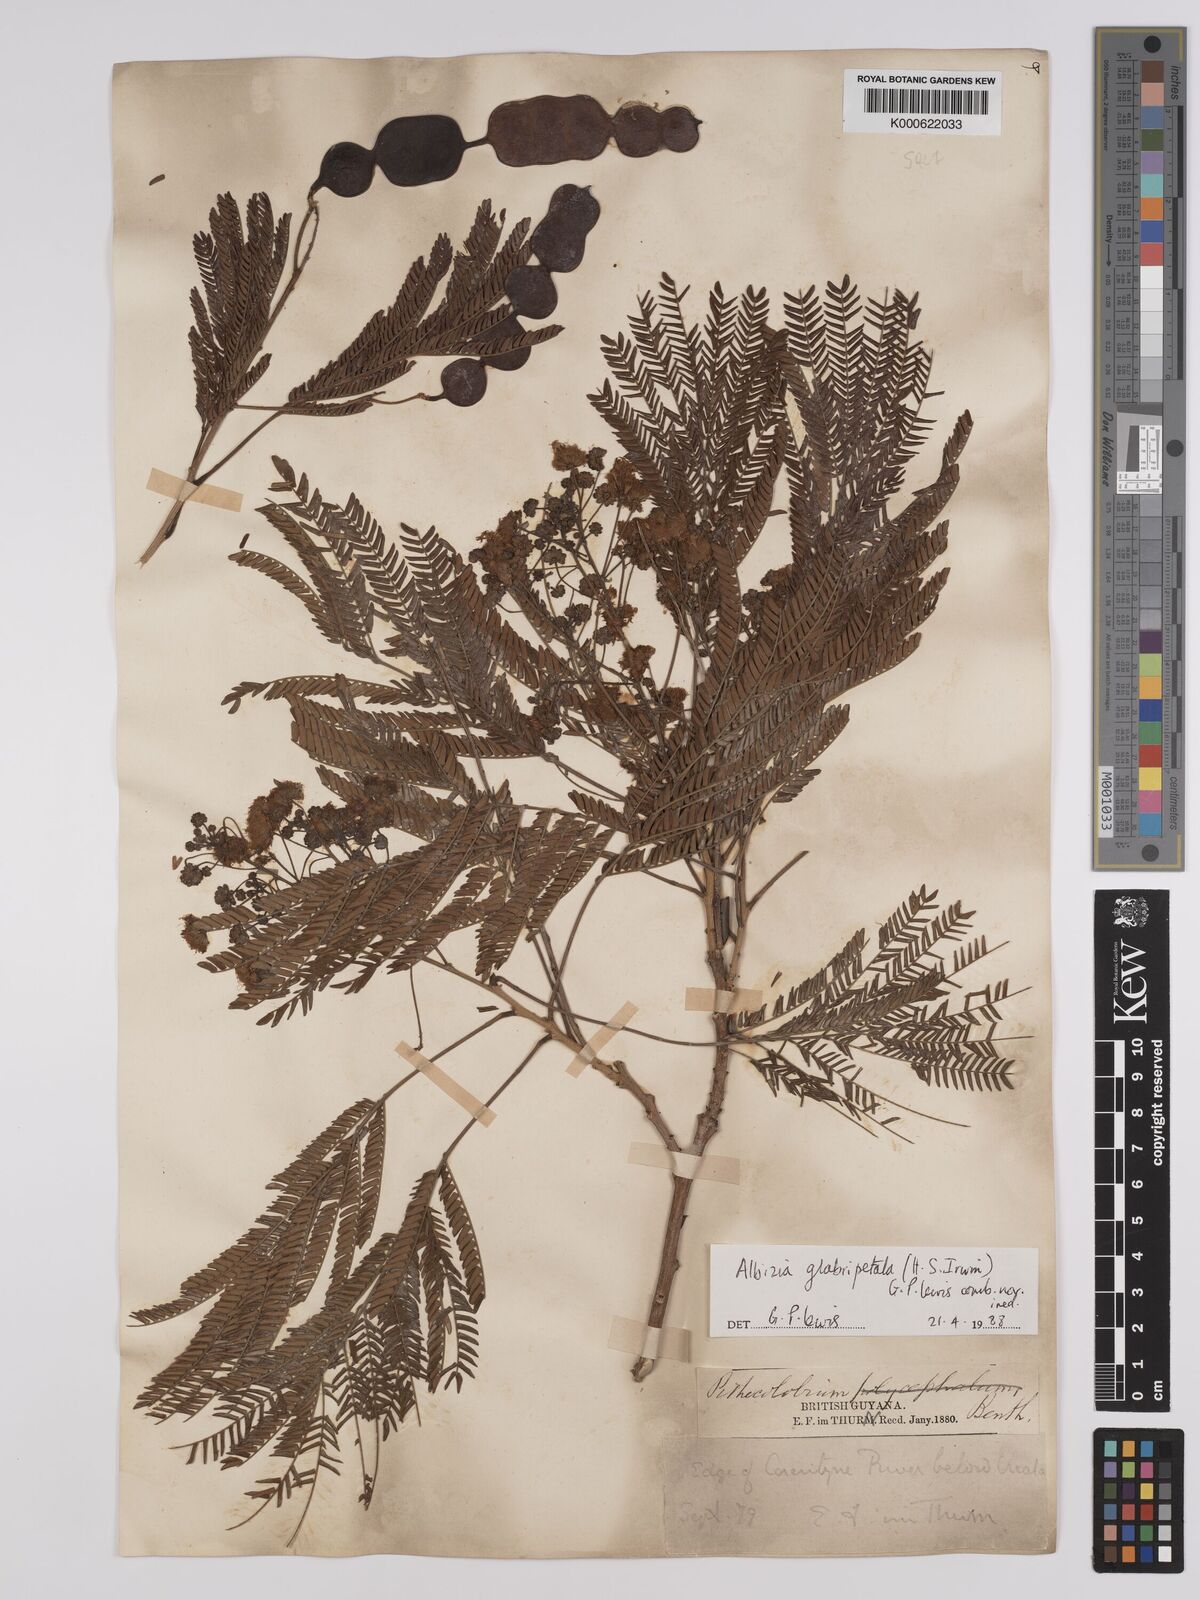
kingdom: Plantae
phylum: Tracheophyta
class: Magnoliopsida
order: Fabales
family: Fabaceae
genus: Albizia
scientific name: Albizia glabripetala
